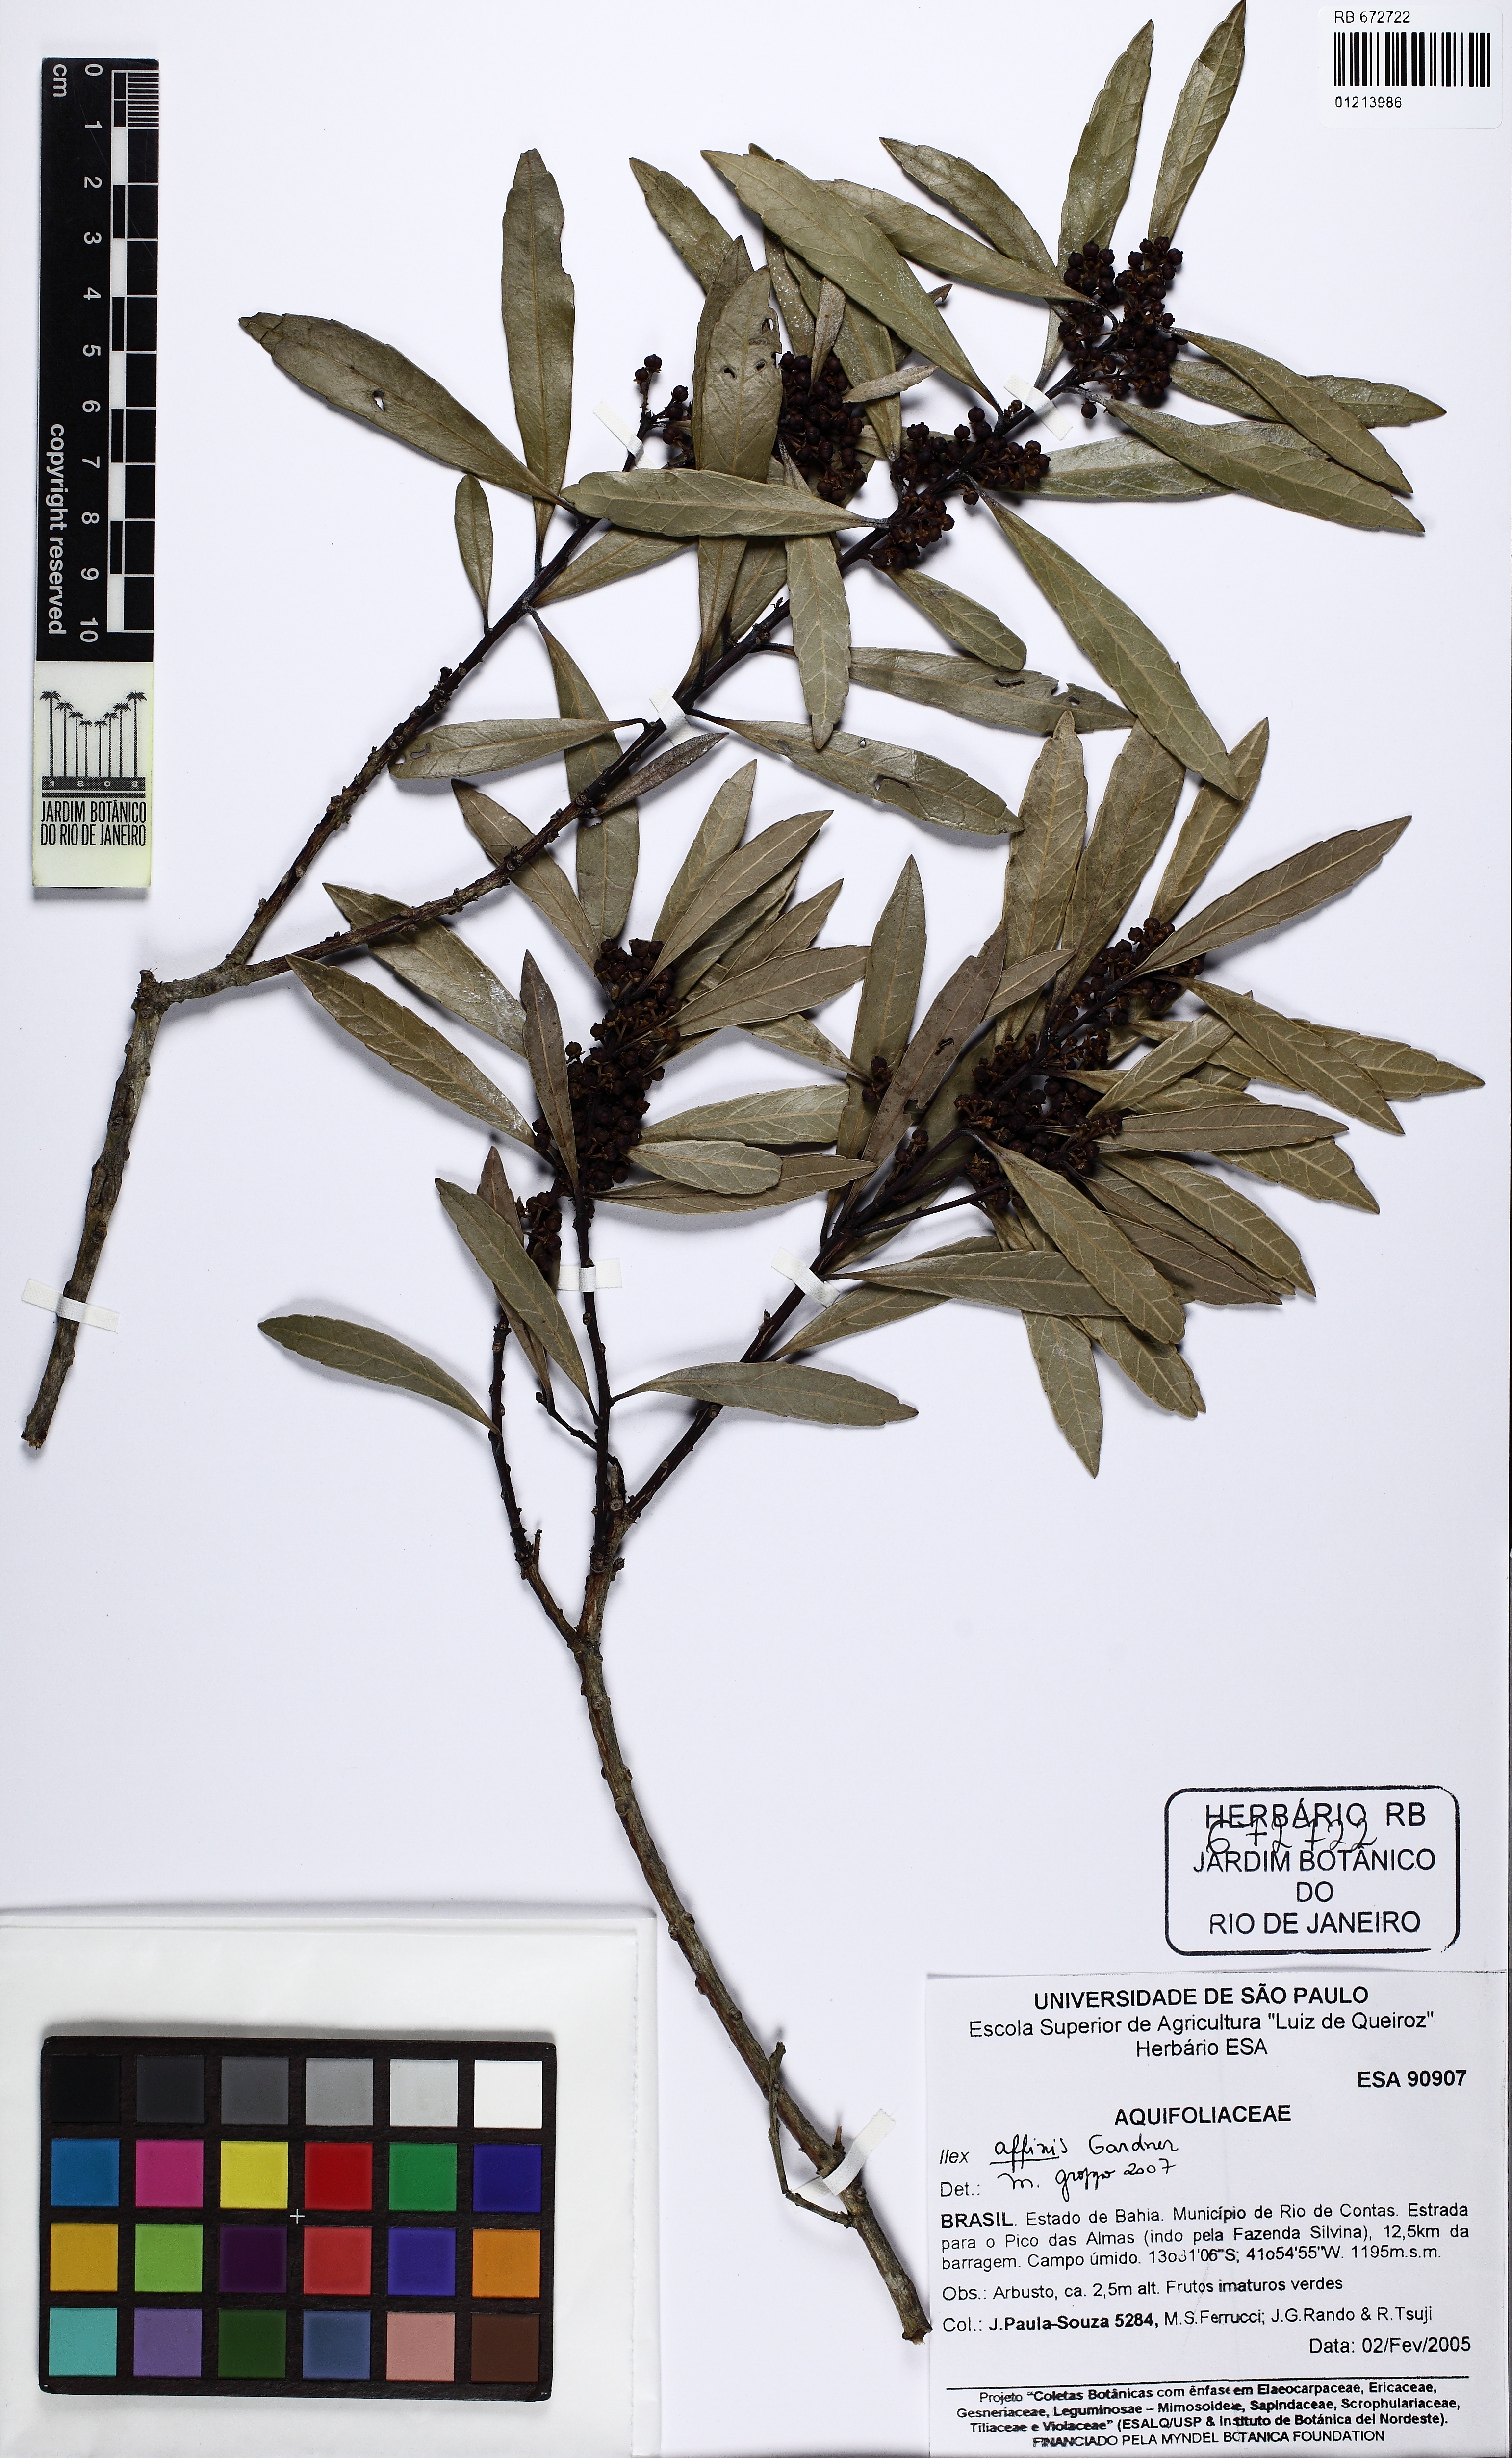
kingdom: Plantae
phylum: Tracheophyta
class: Magnoliopsida
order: Aquifoliales
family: Aquifoliaceae
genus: Ilex
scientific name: Ilex affinis
